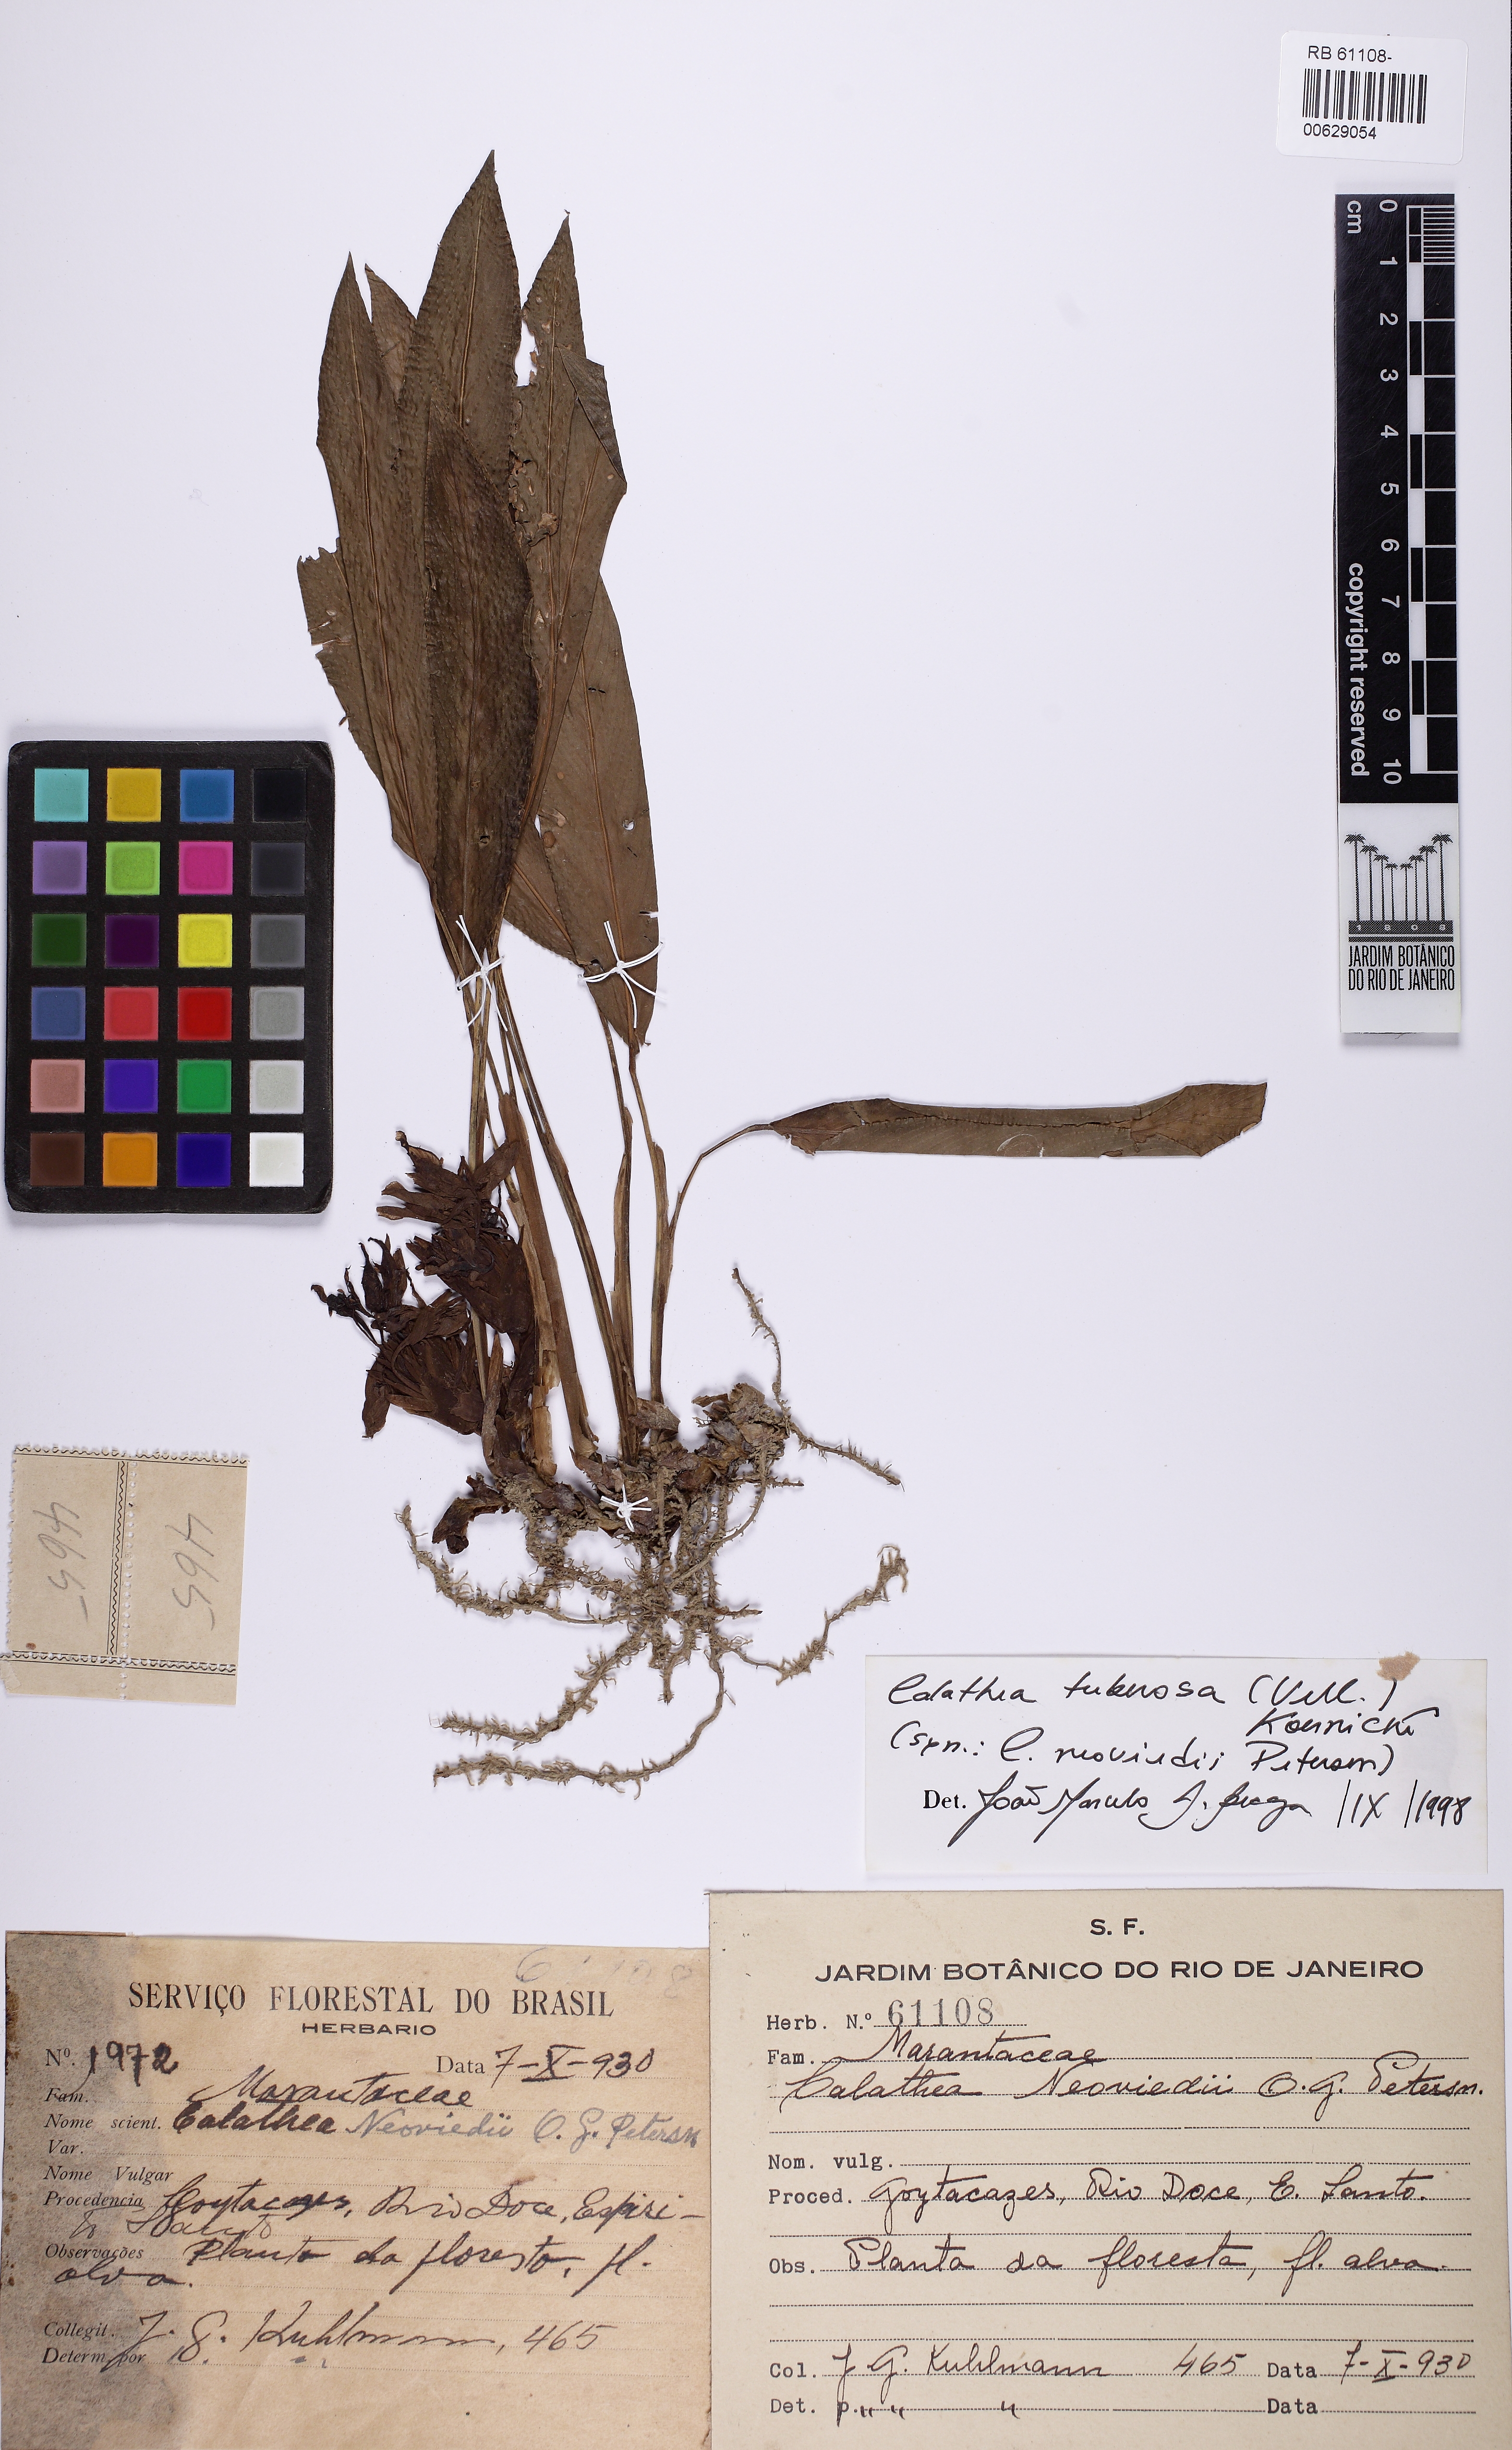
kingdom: Plantae
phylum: Tracheophyta
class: Liliopsida
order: Zingiberales
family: Marantaceae
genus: Goeppertia
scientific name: Goeppertia tuberosa
